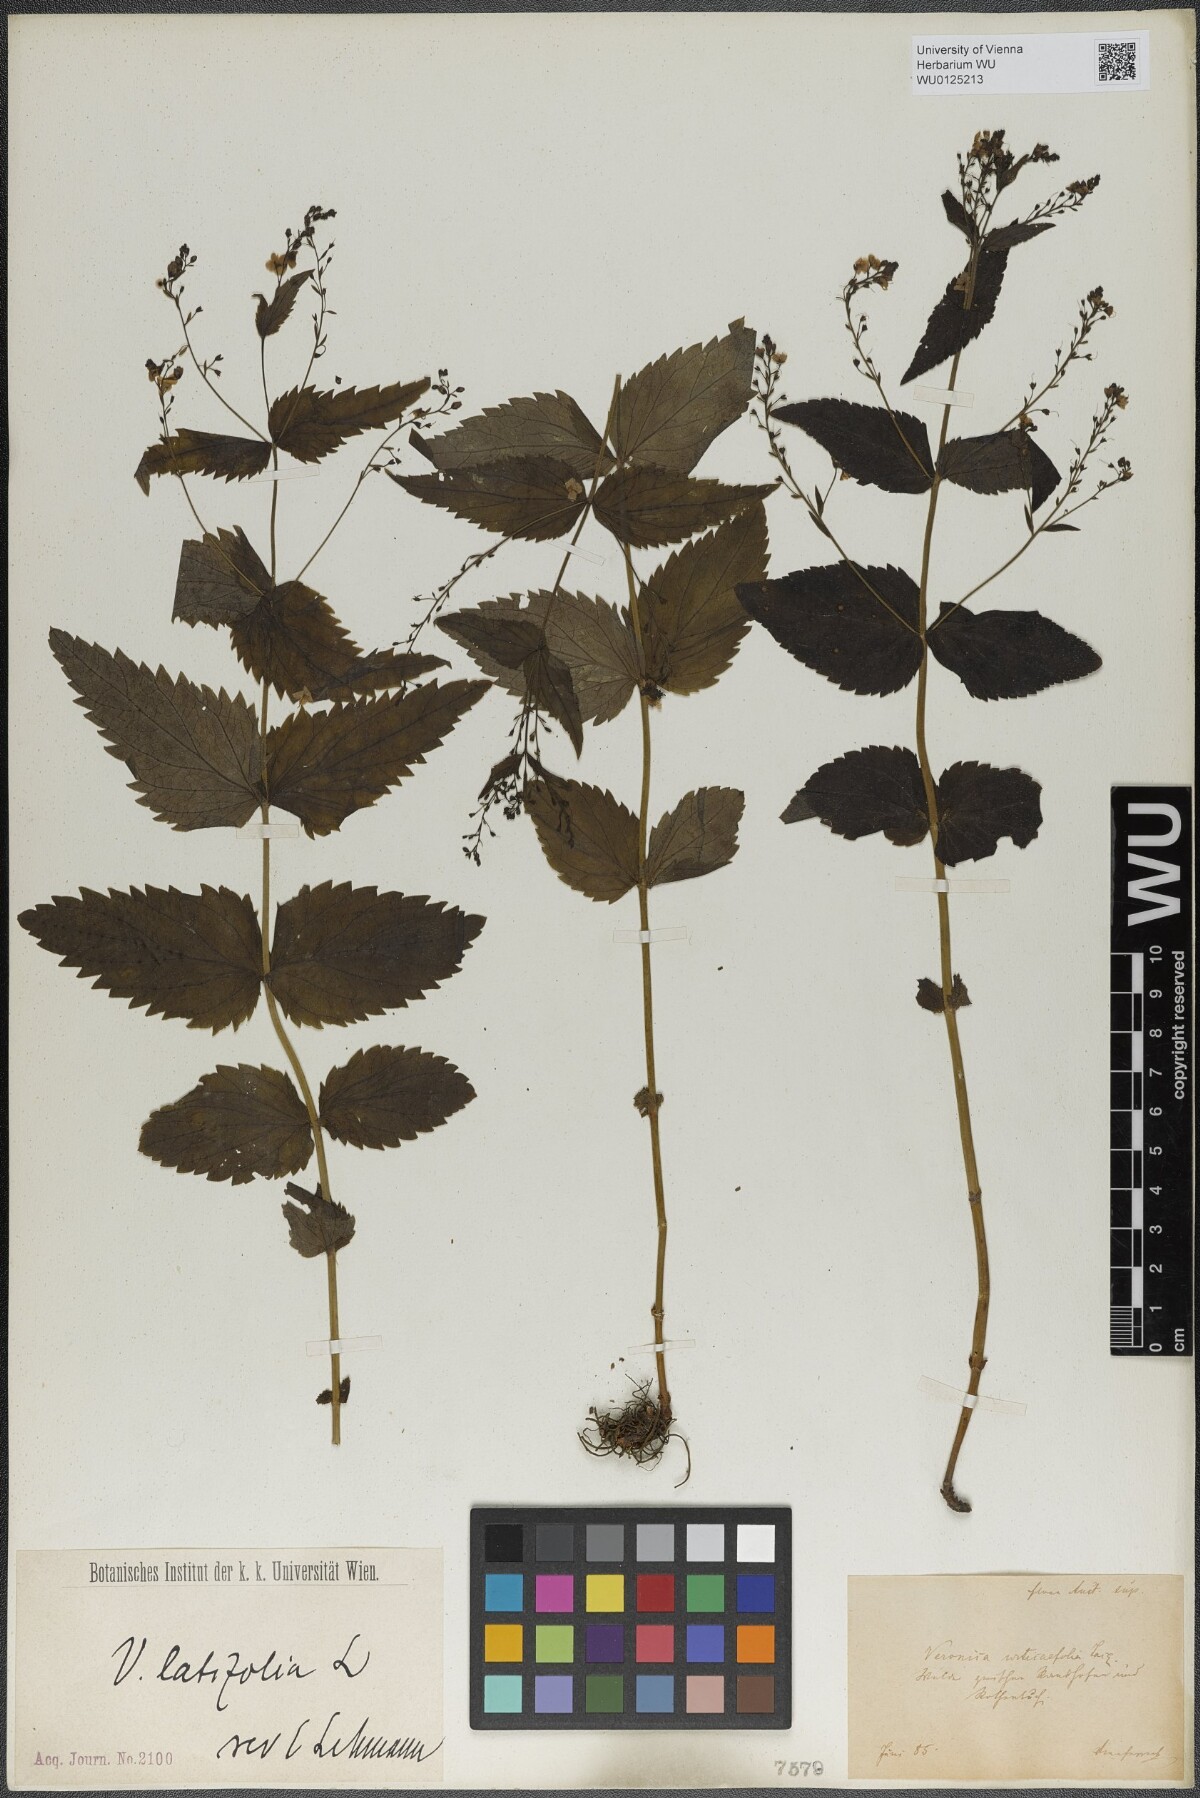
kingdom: Plantae
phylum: Tracheophyta
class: Magnoliopsida
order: Lamiales
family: Plantaginaceae
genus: Veronica
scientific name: Veronica urticifolia
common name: Nettle-leaf speedwell
